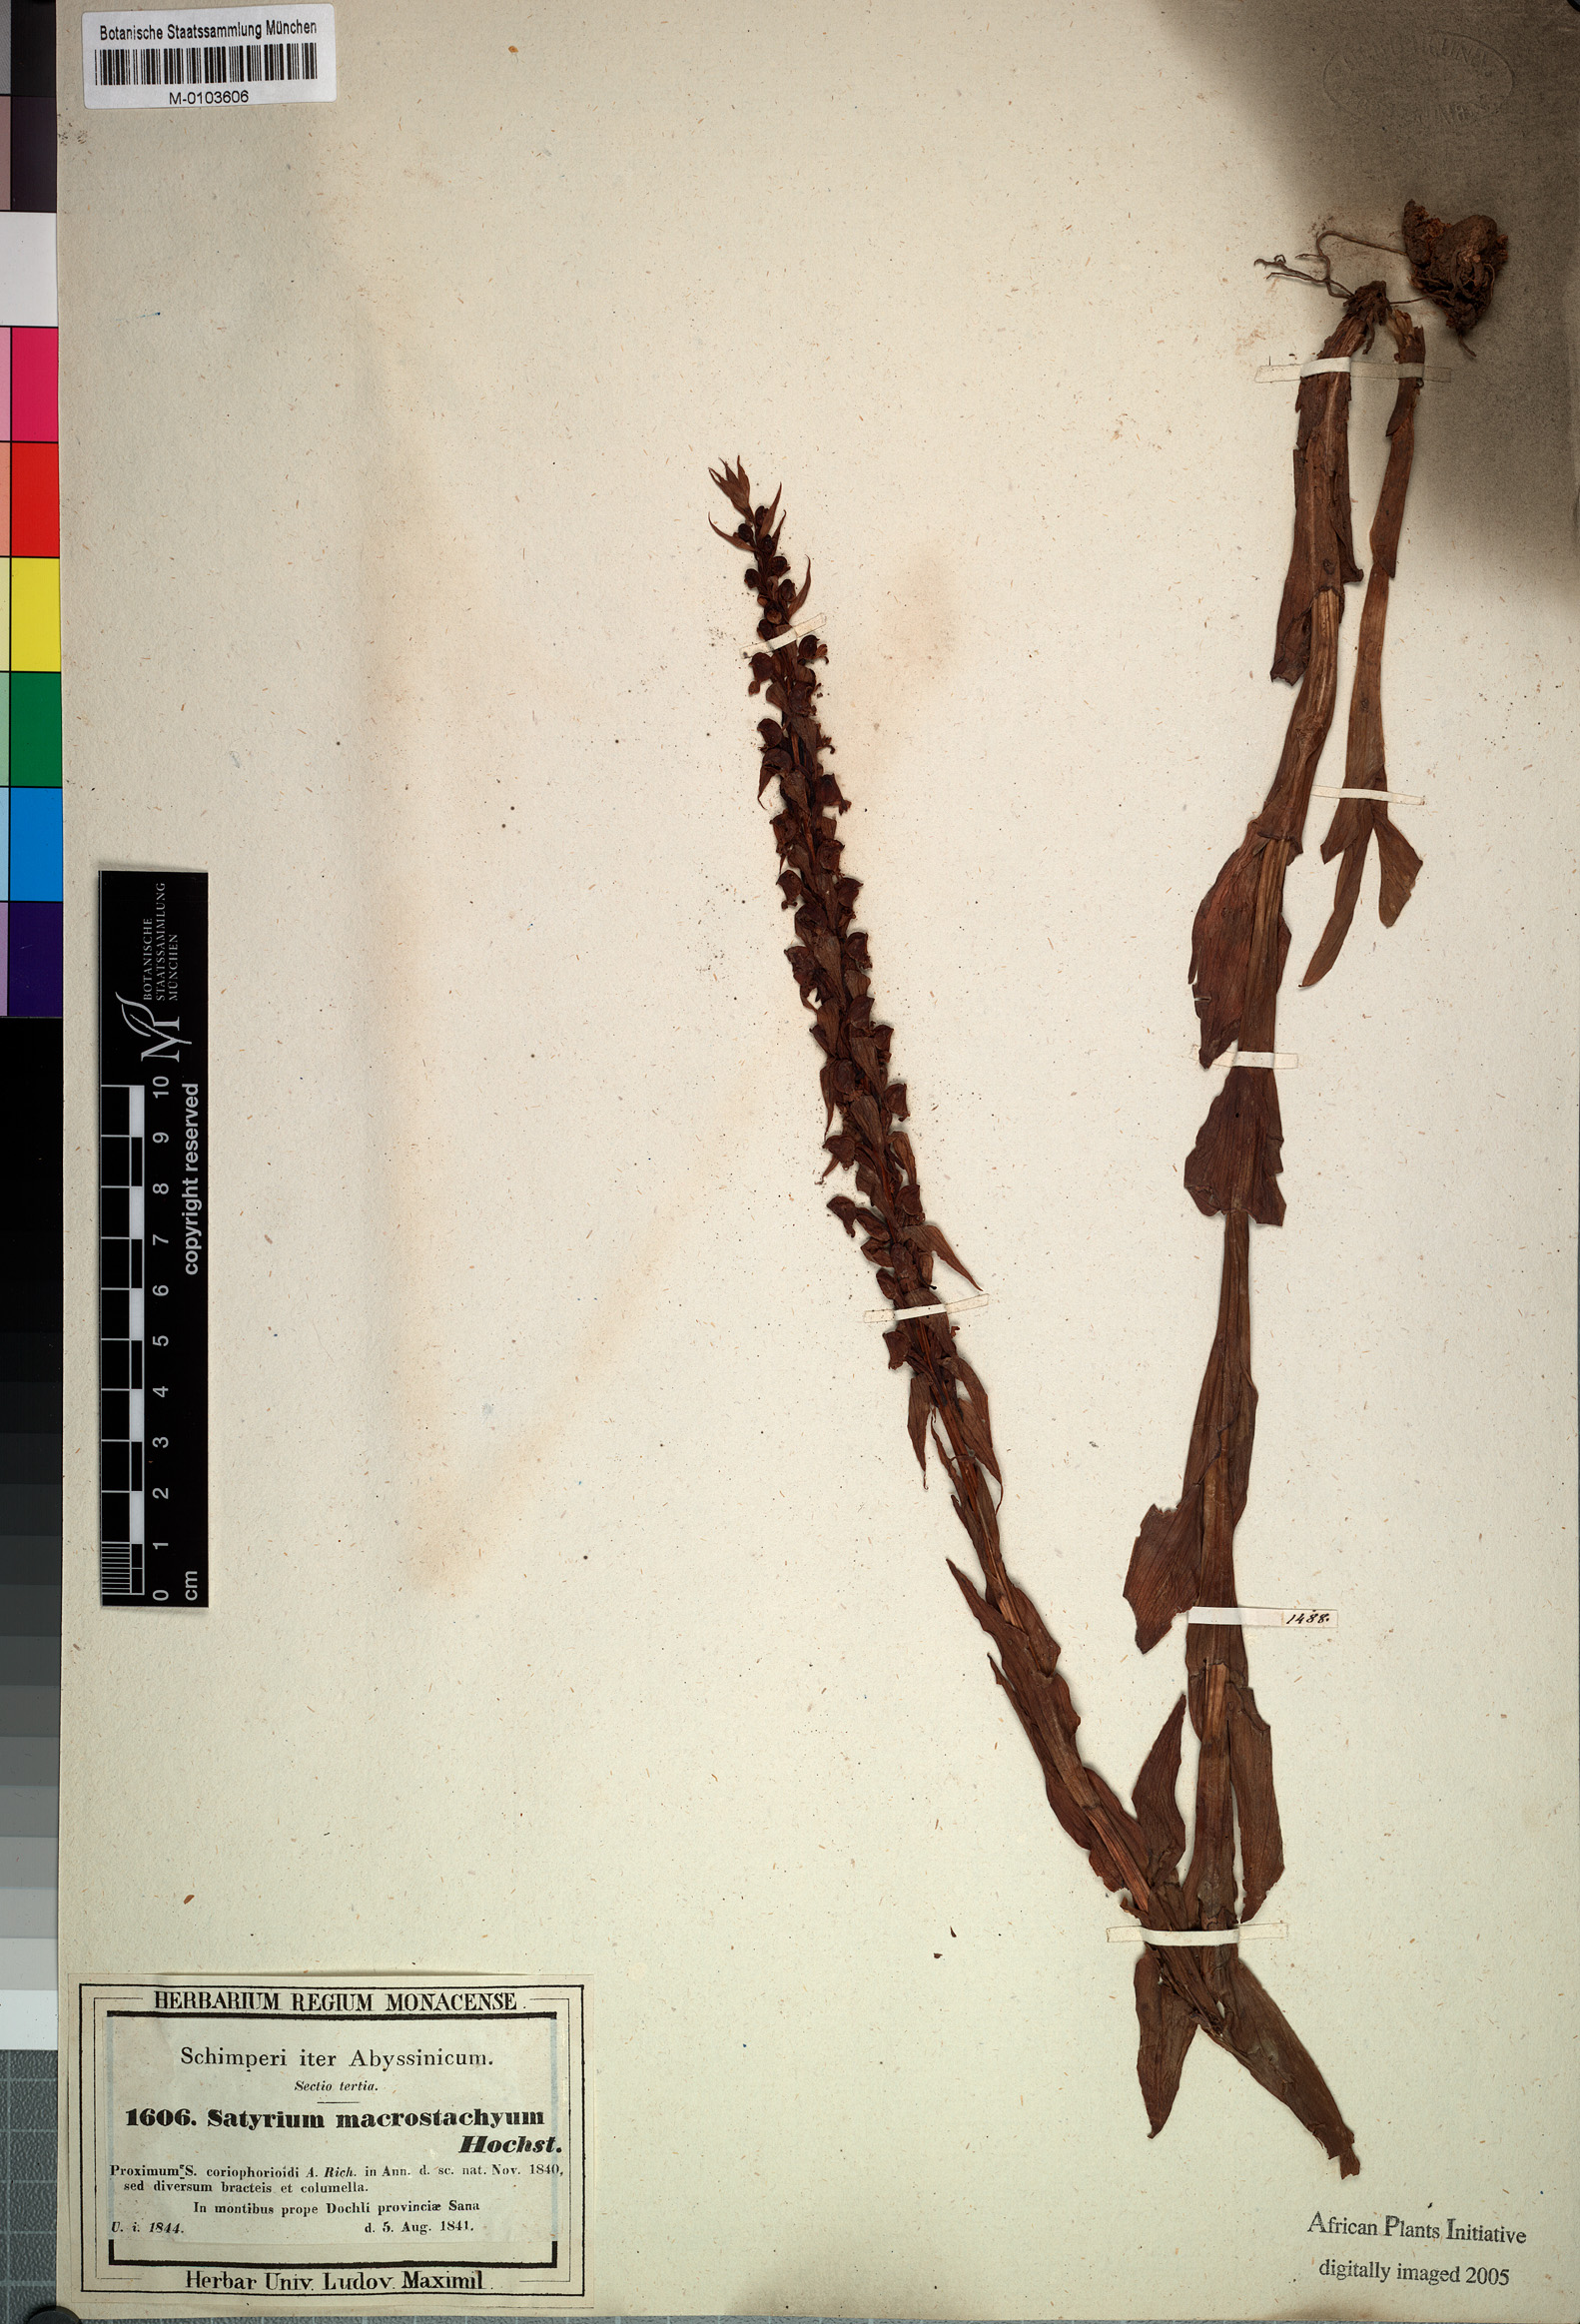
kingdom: Plantae
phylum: Tracheophyta
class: Liliopsida
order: Asparagales
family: Orchidaceae
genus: Satyrium
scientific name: Satyrium brachypetalum
